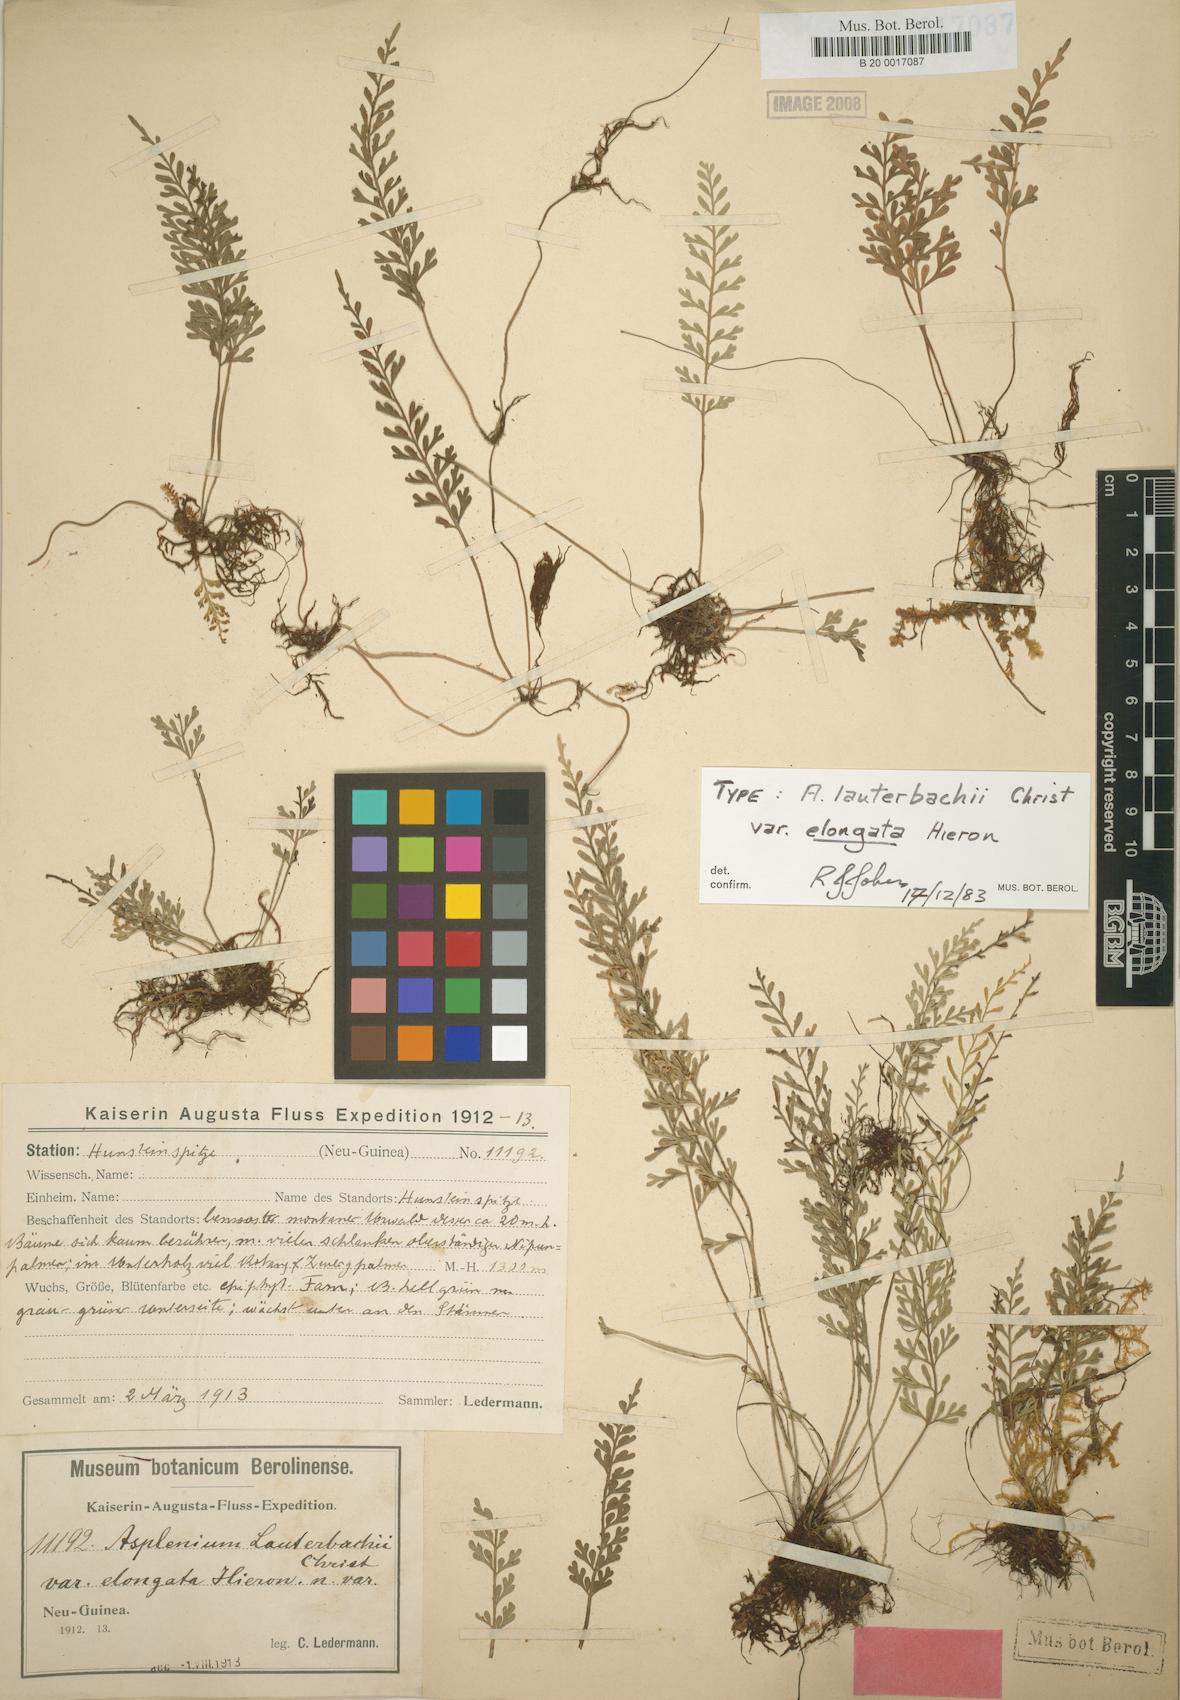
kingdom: Plantae
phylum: Tracheophyta
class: Polypodiopsida
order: Polypodiales
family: Aspleniaceae
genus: Asplenium
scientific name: Asplenium bipinnatifidum
